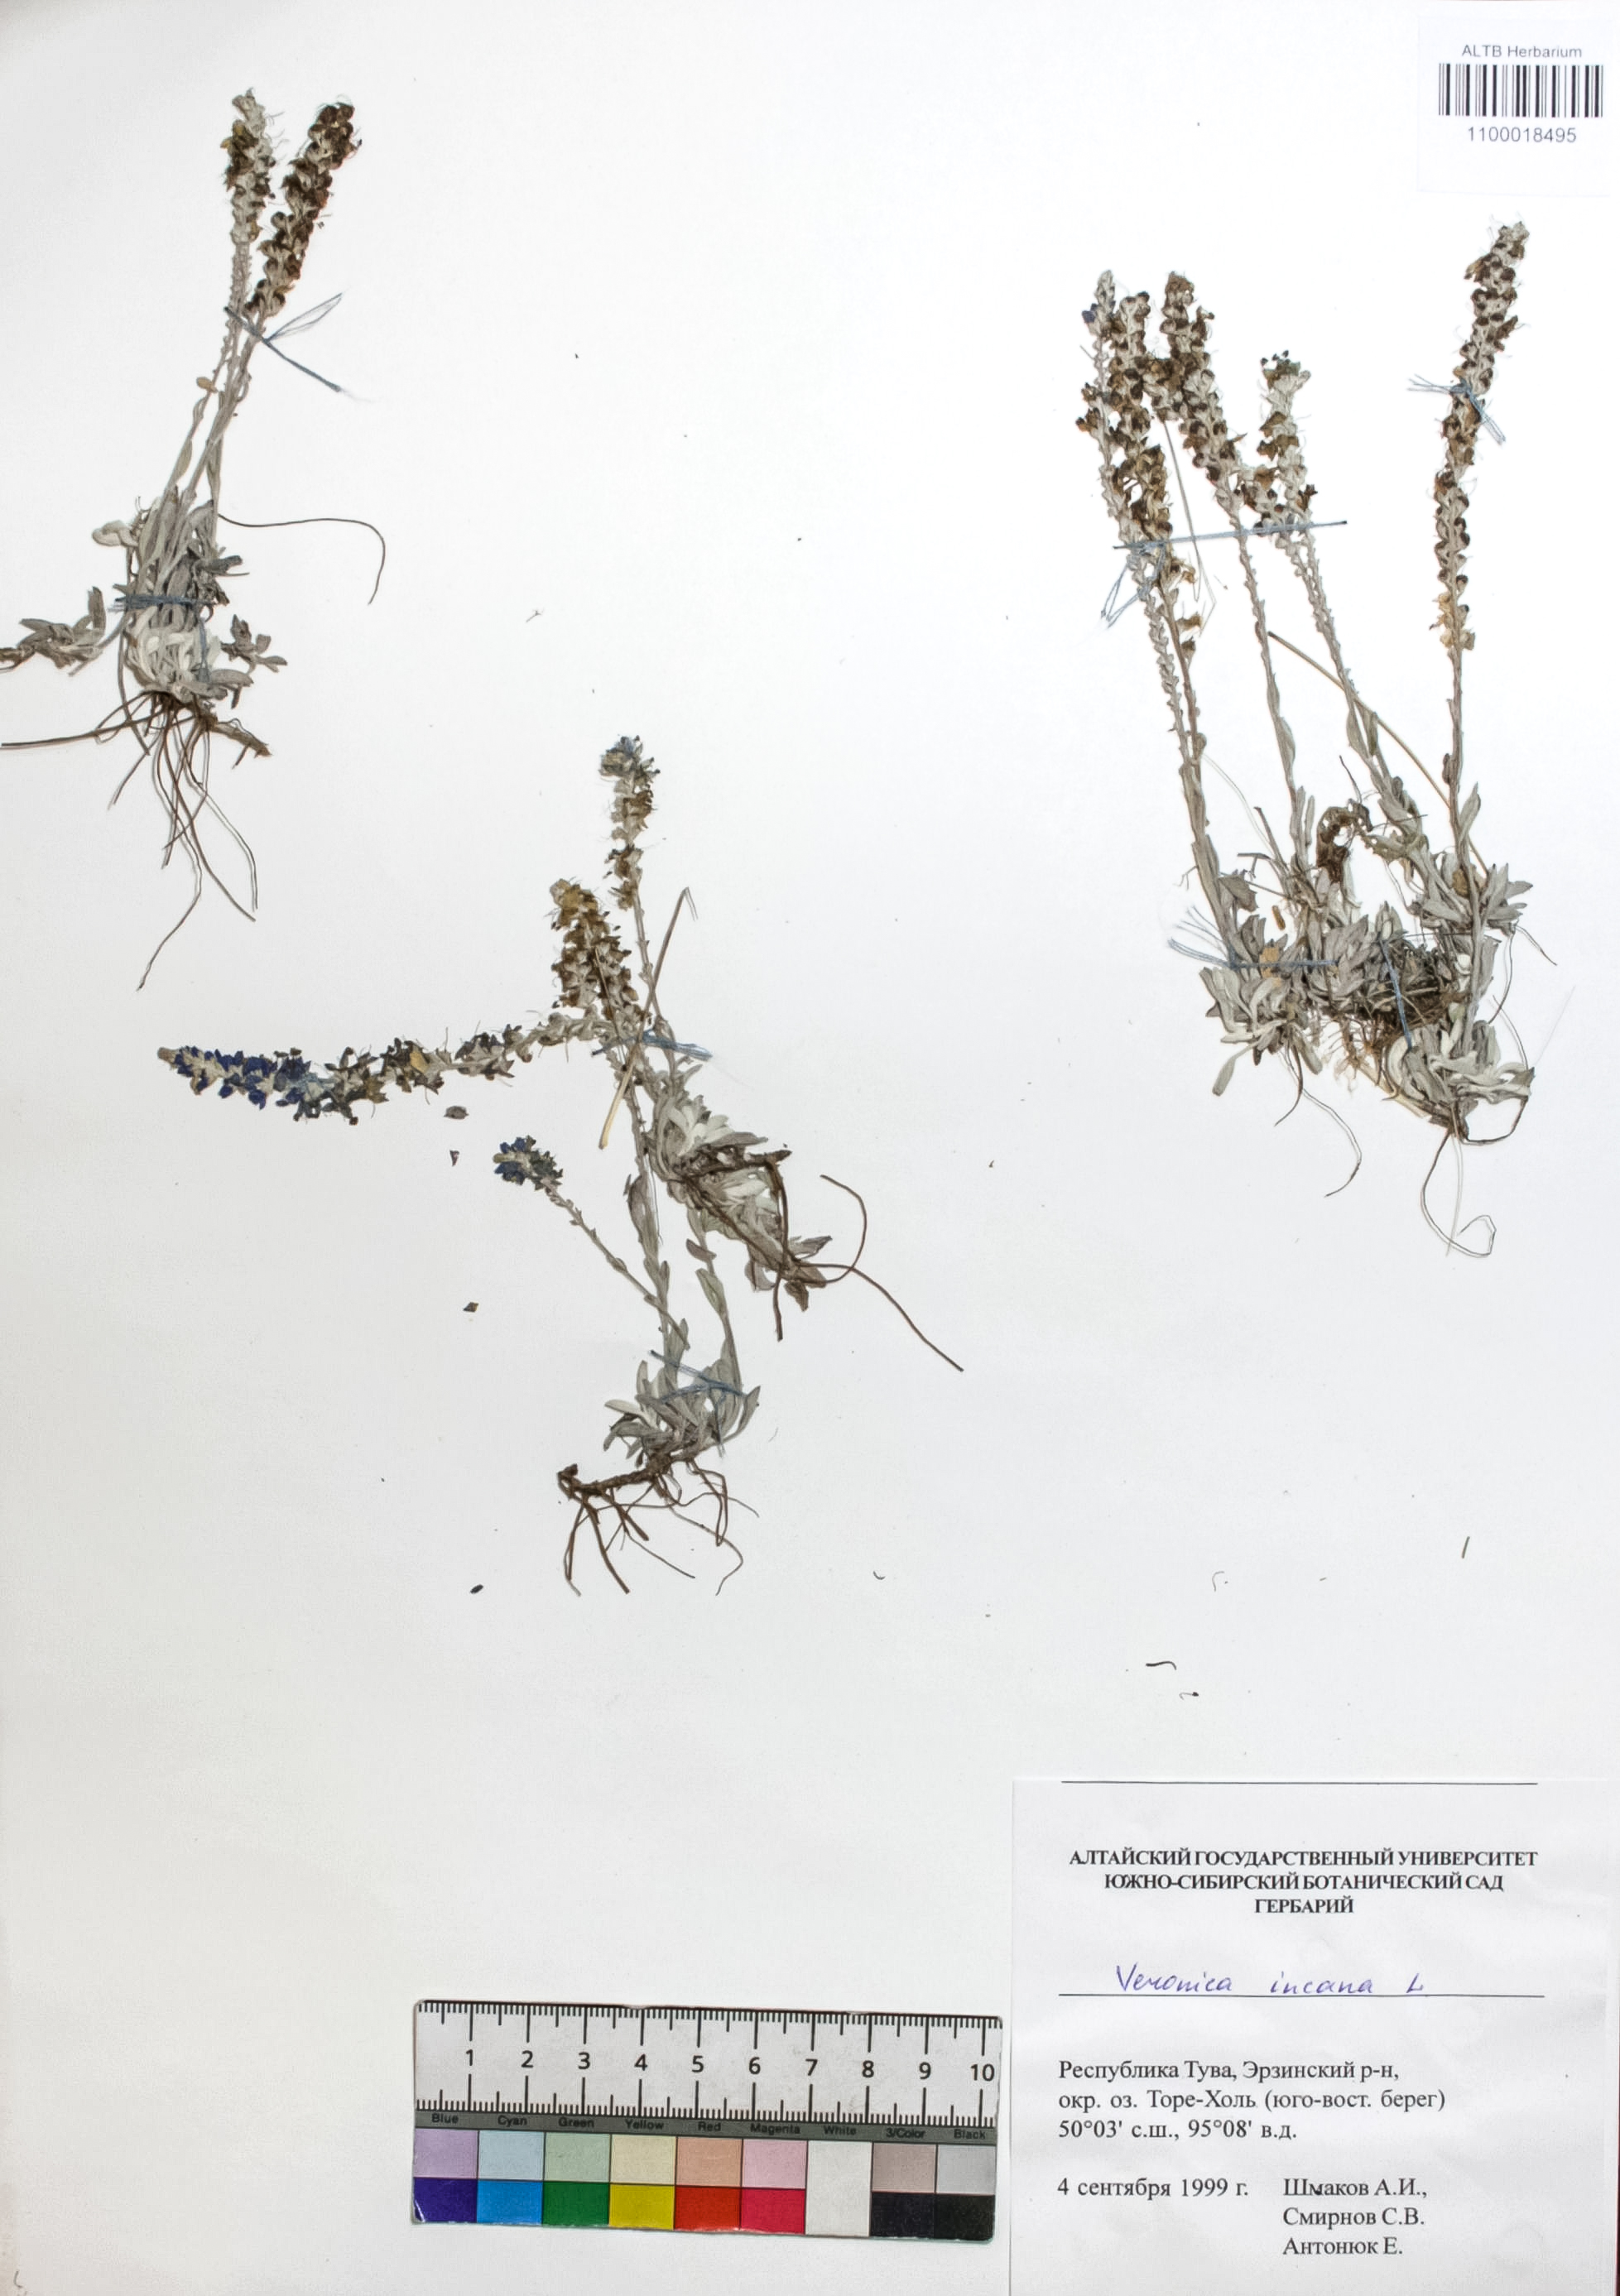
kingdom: Plantae
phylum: Tracheophyta
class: Magnoliopsida
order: Lamiales
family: Plantaginaceae
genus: Veronica
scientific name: Veronica incana
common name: Silver speedwell
